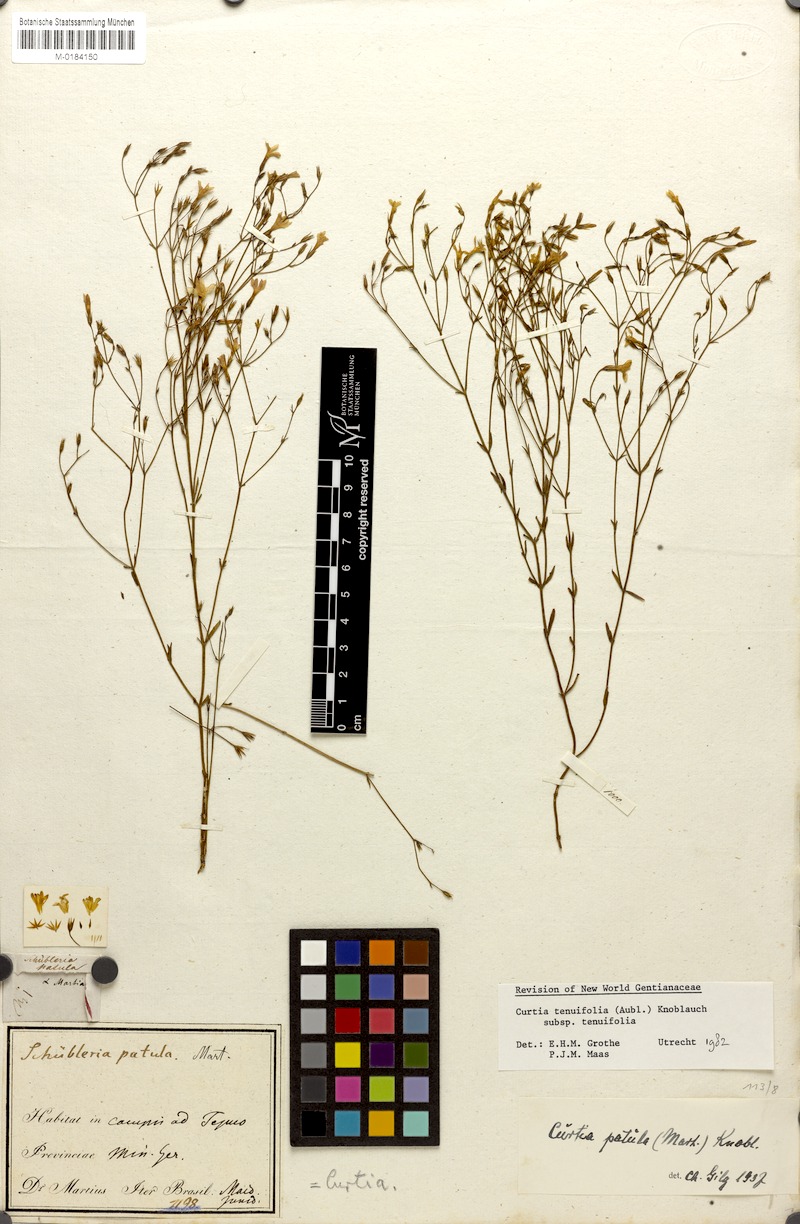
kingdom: Plantae
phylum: Tracheophyta
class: Magnoliopsida
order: Gentianales
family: Gentianaceae
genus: Curtia
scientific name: Curtia tenuifolia
